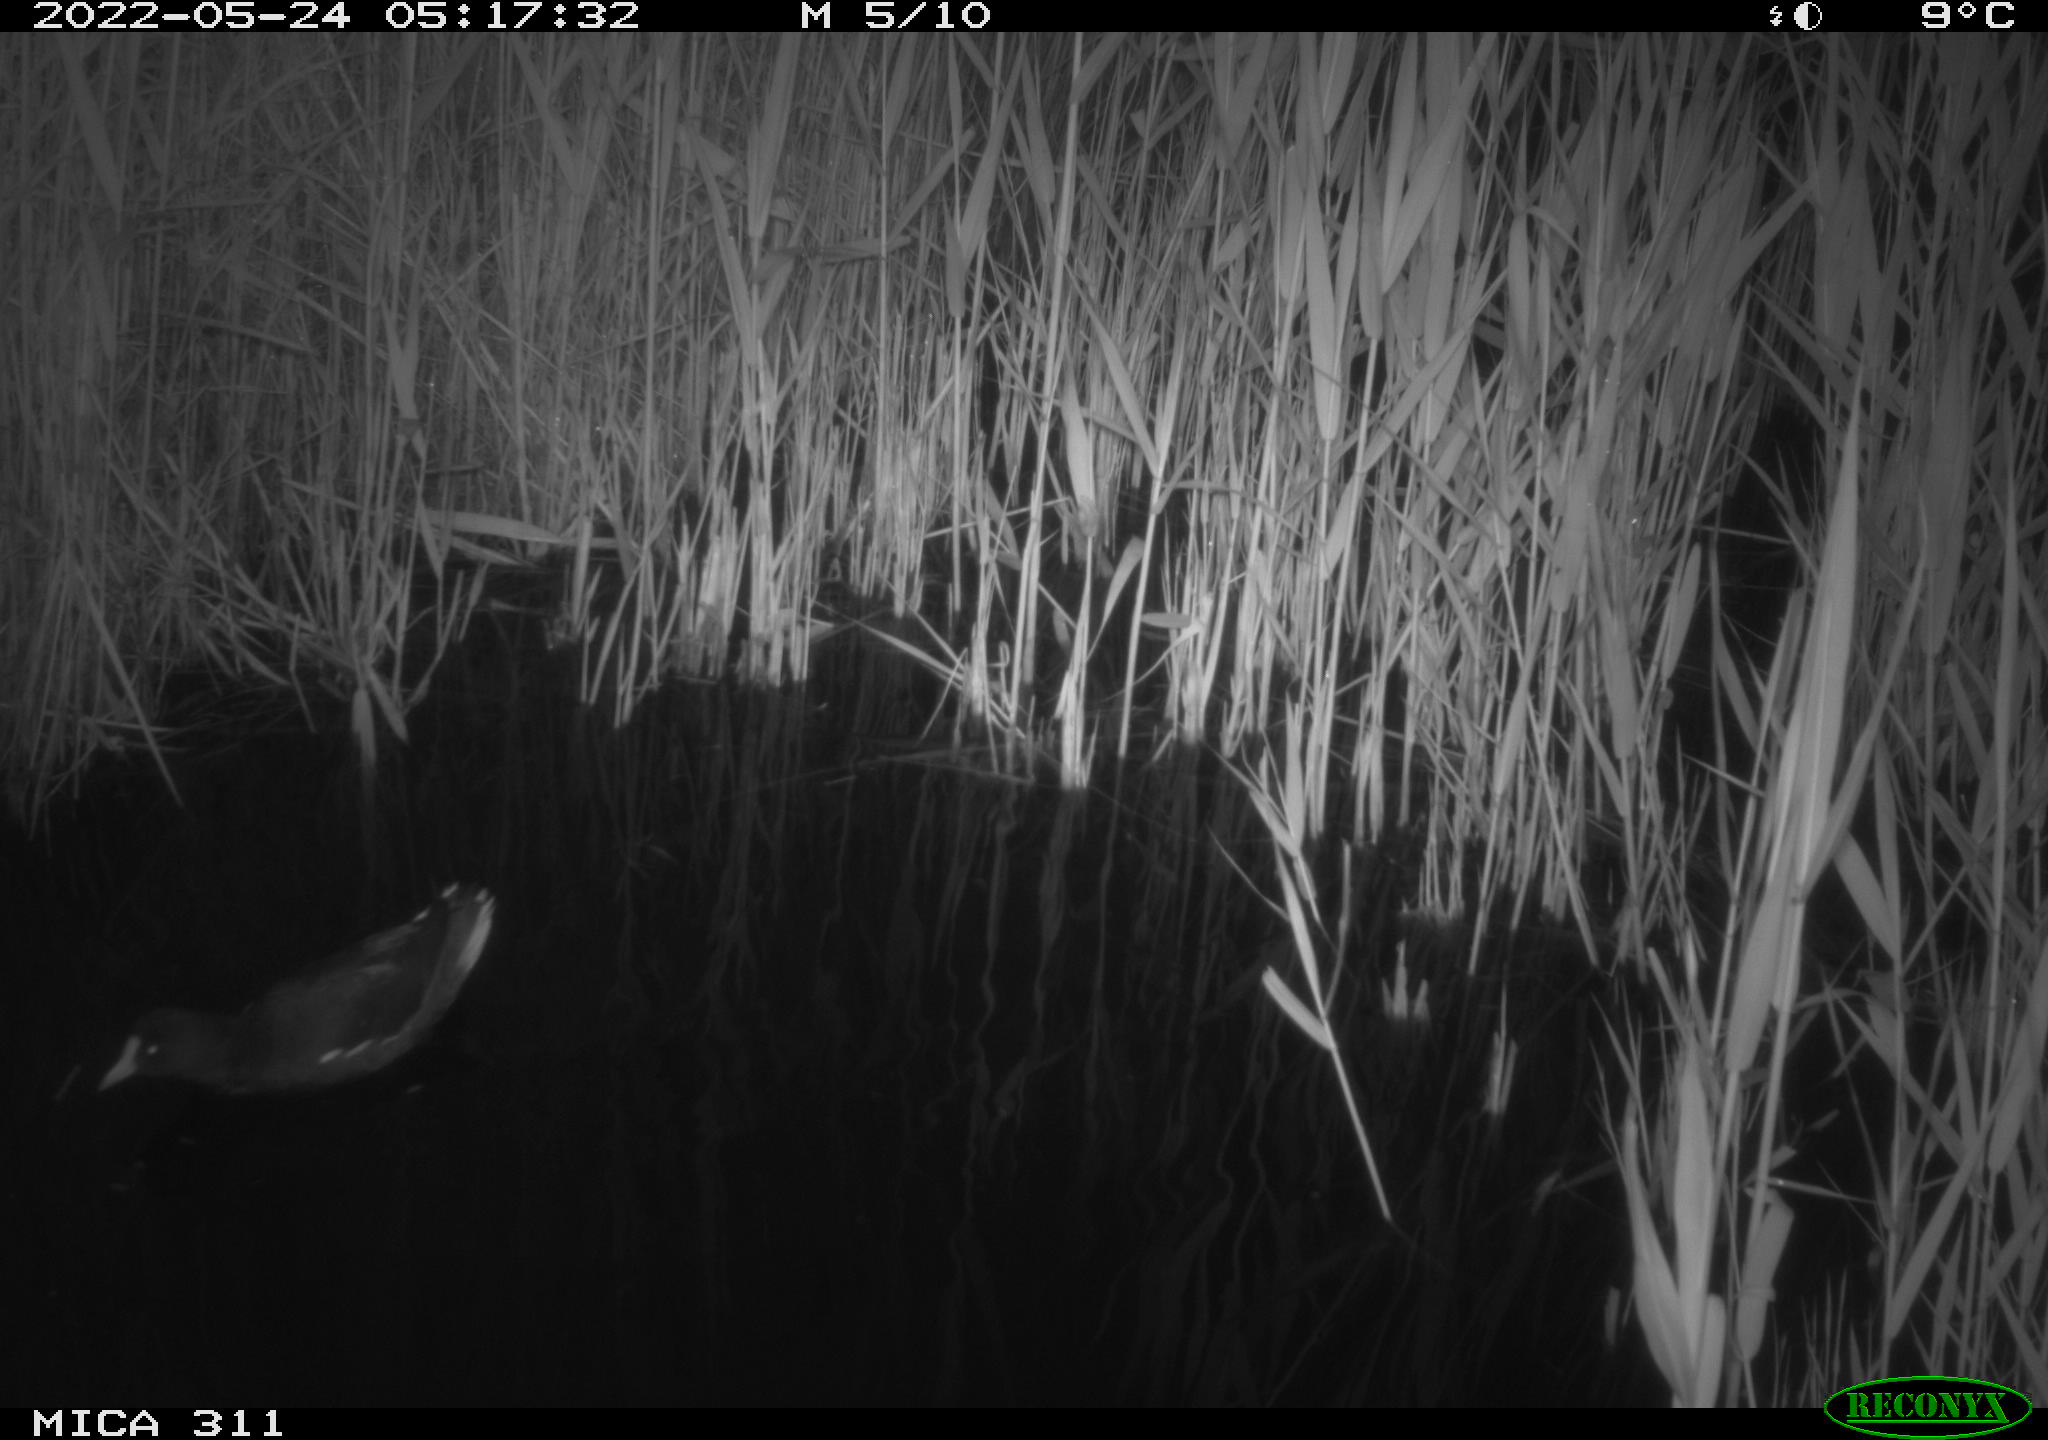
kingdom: Animalia
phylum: Chordata
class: Aves
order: Gruiformes
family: Rallidae
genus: Gallinula
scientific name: Gallinula chloropus
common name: Common moorhen
